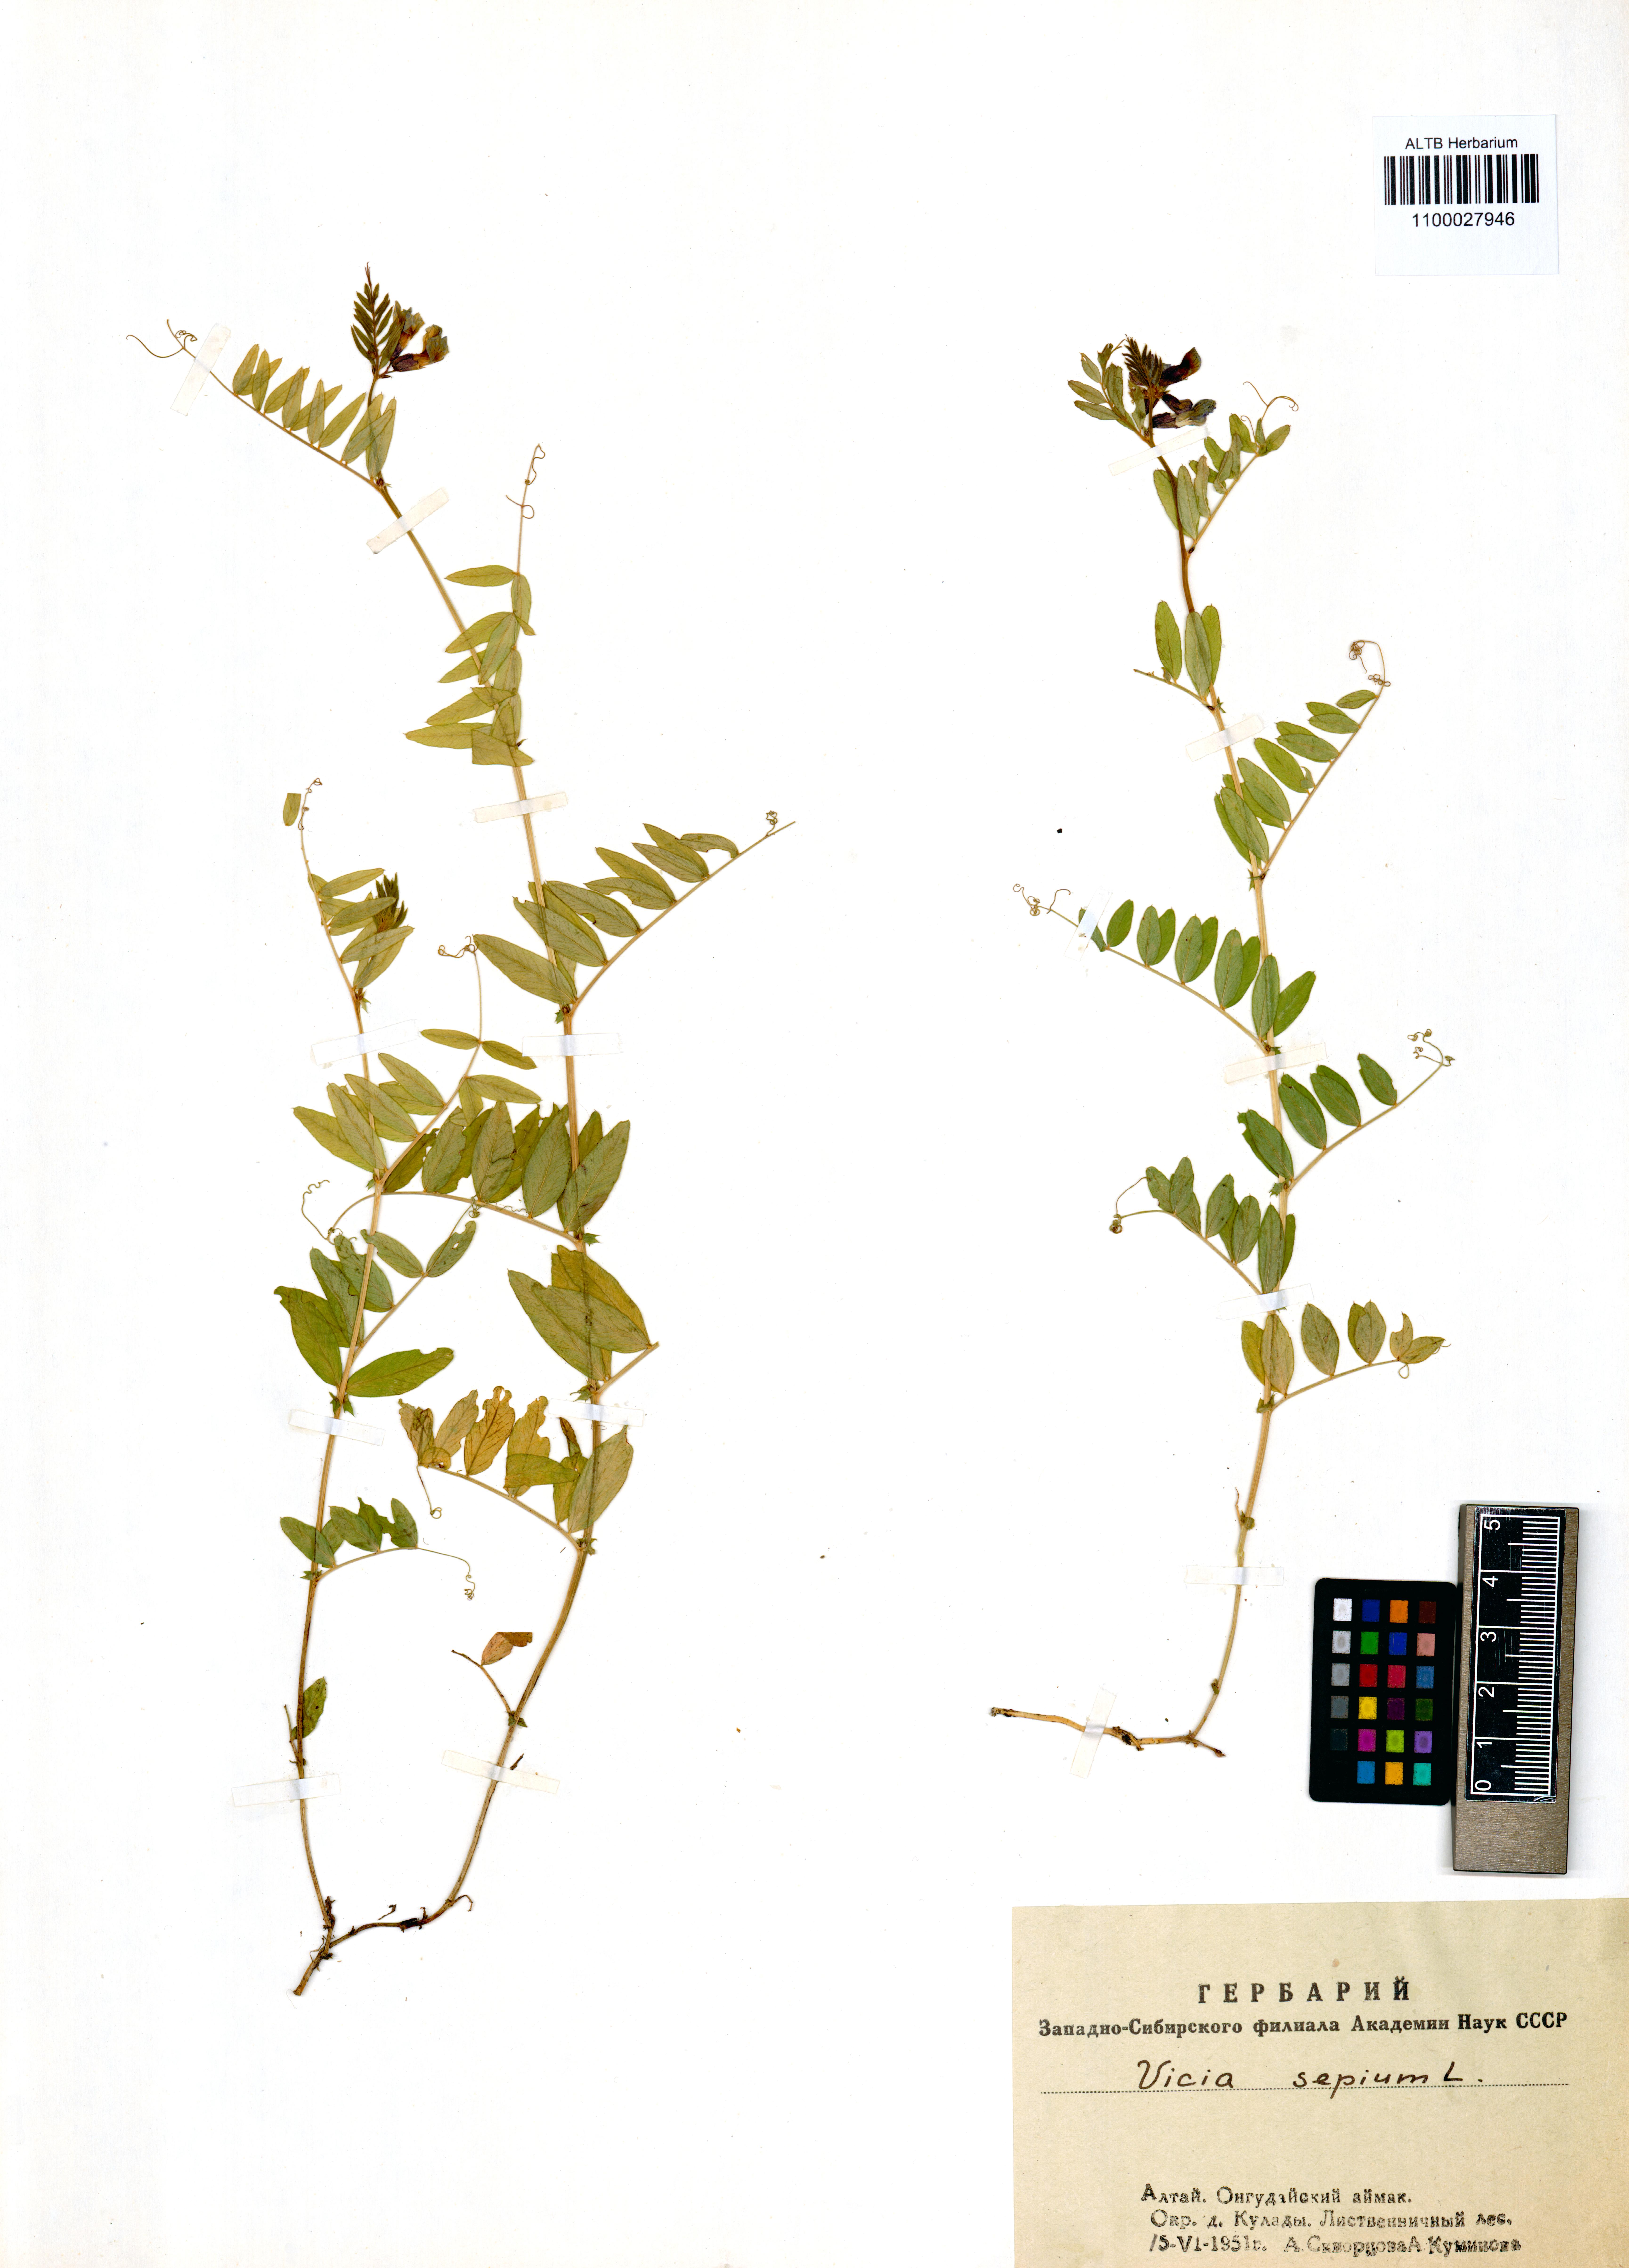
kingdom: Plantae
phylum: Tracheophyta
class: Magnoliopsida
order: Fabales
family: Fabaceae
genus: Vicia
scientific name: Vicia sepium
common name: Bush vetch
